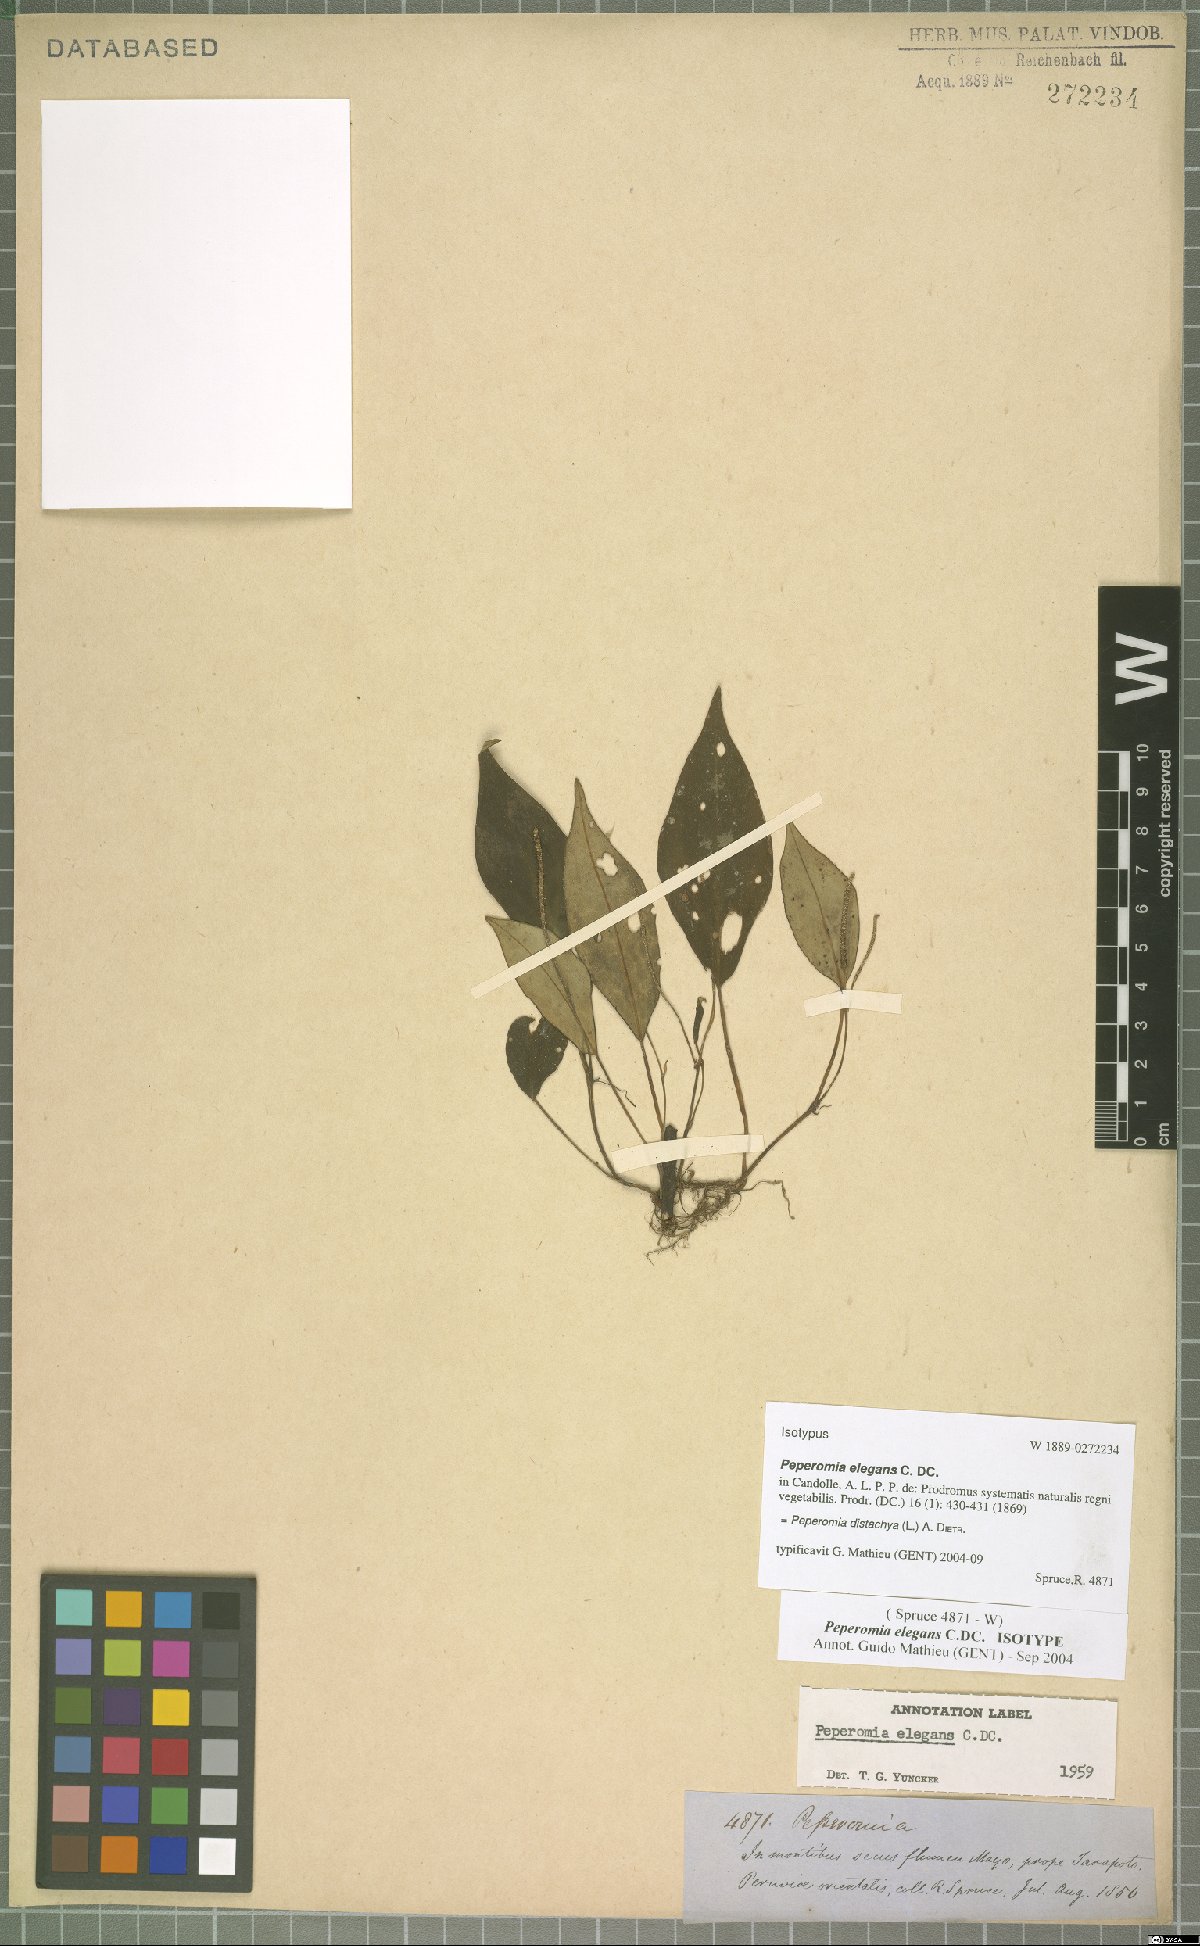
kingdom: Plantae
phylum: Tracheophyta
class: Magnoliopsida
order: Piperales
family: Piperaceae
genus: Peperomia
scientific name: Peperomia distachyos
